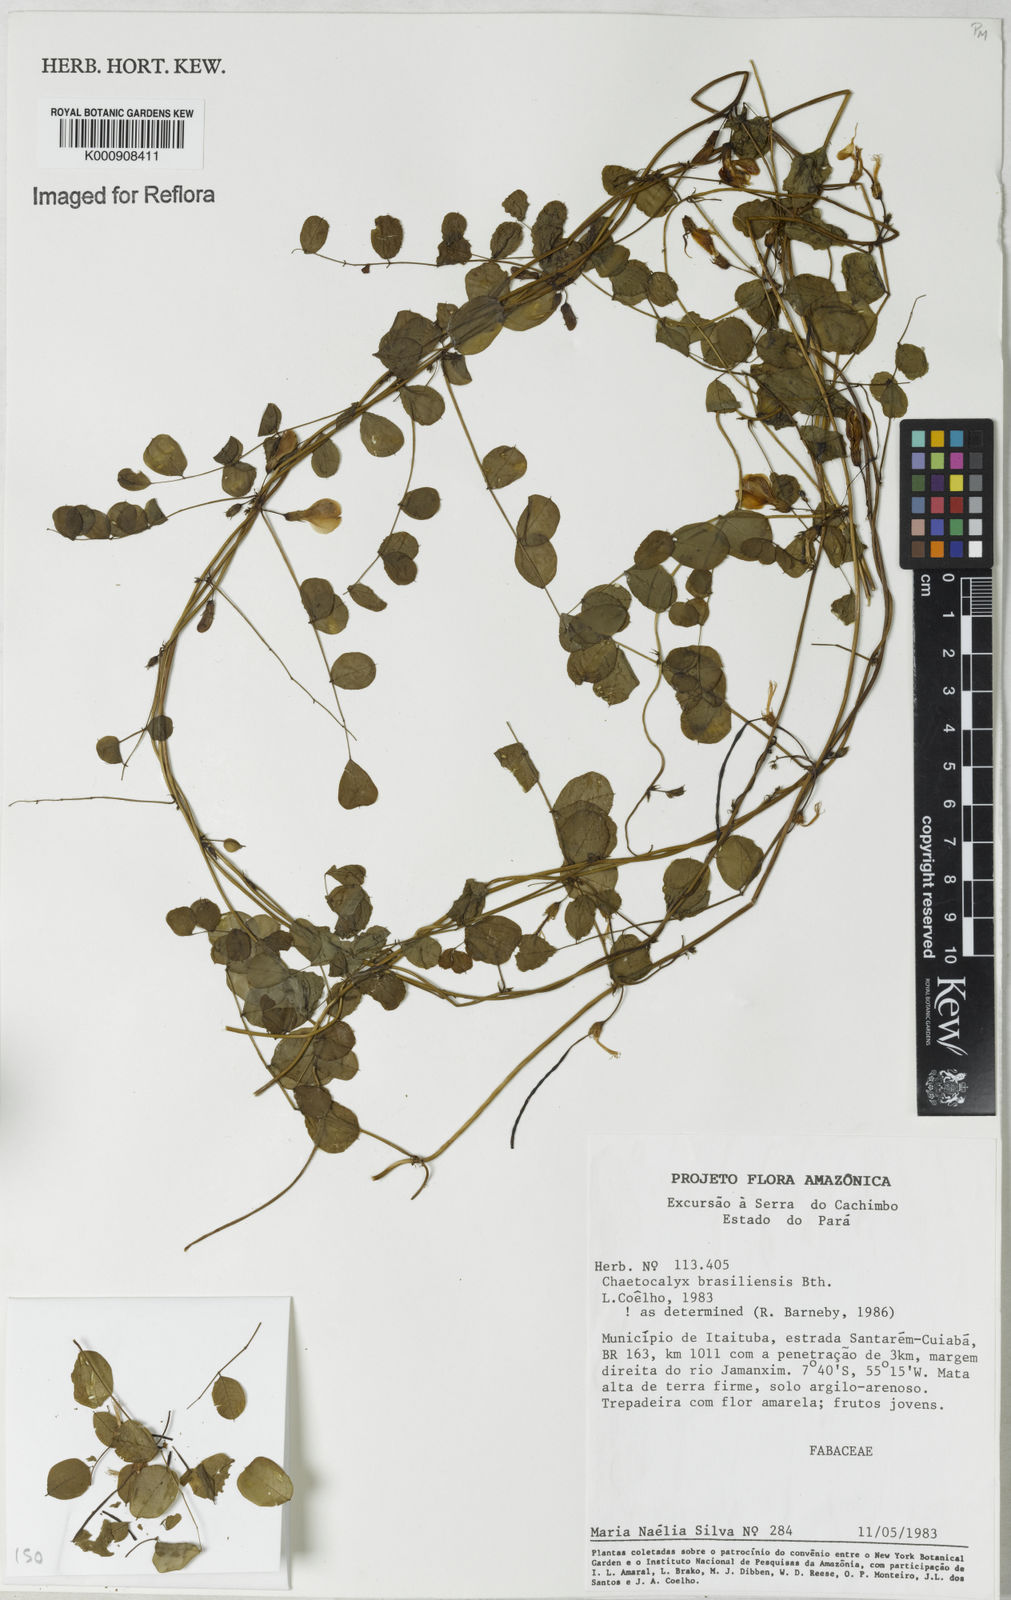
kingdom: Plantae
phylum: Tracheophyta
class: Magnoliopsida
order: Fabales
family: Fabaceae
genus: Nissolia
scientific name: Nissolia brasiliensis
